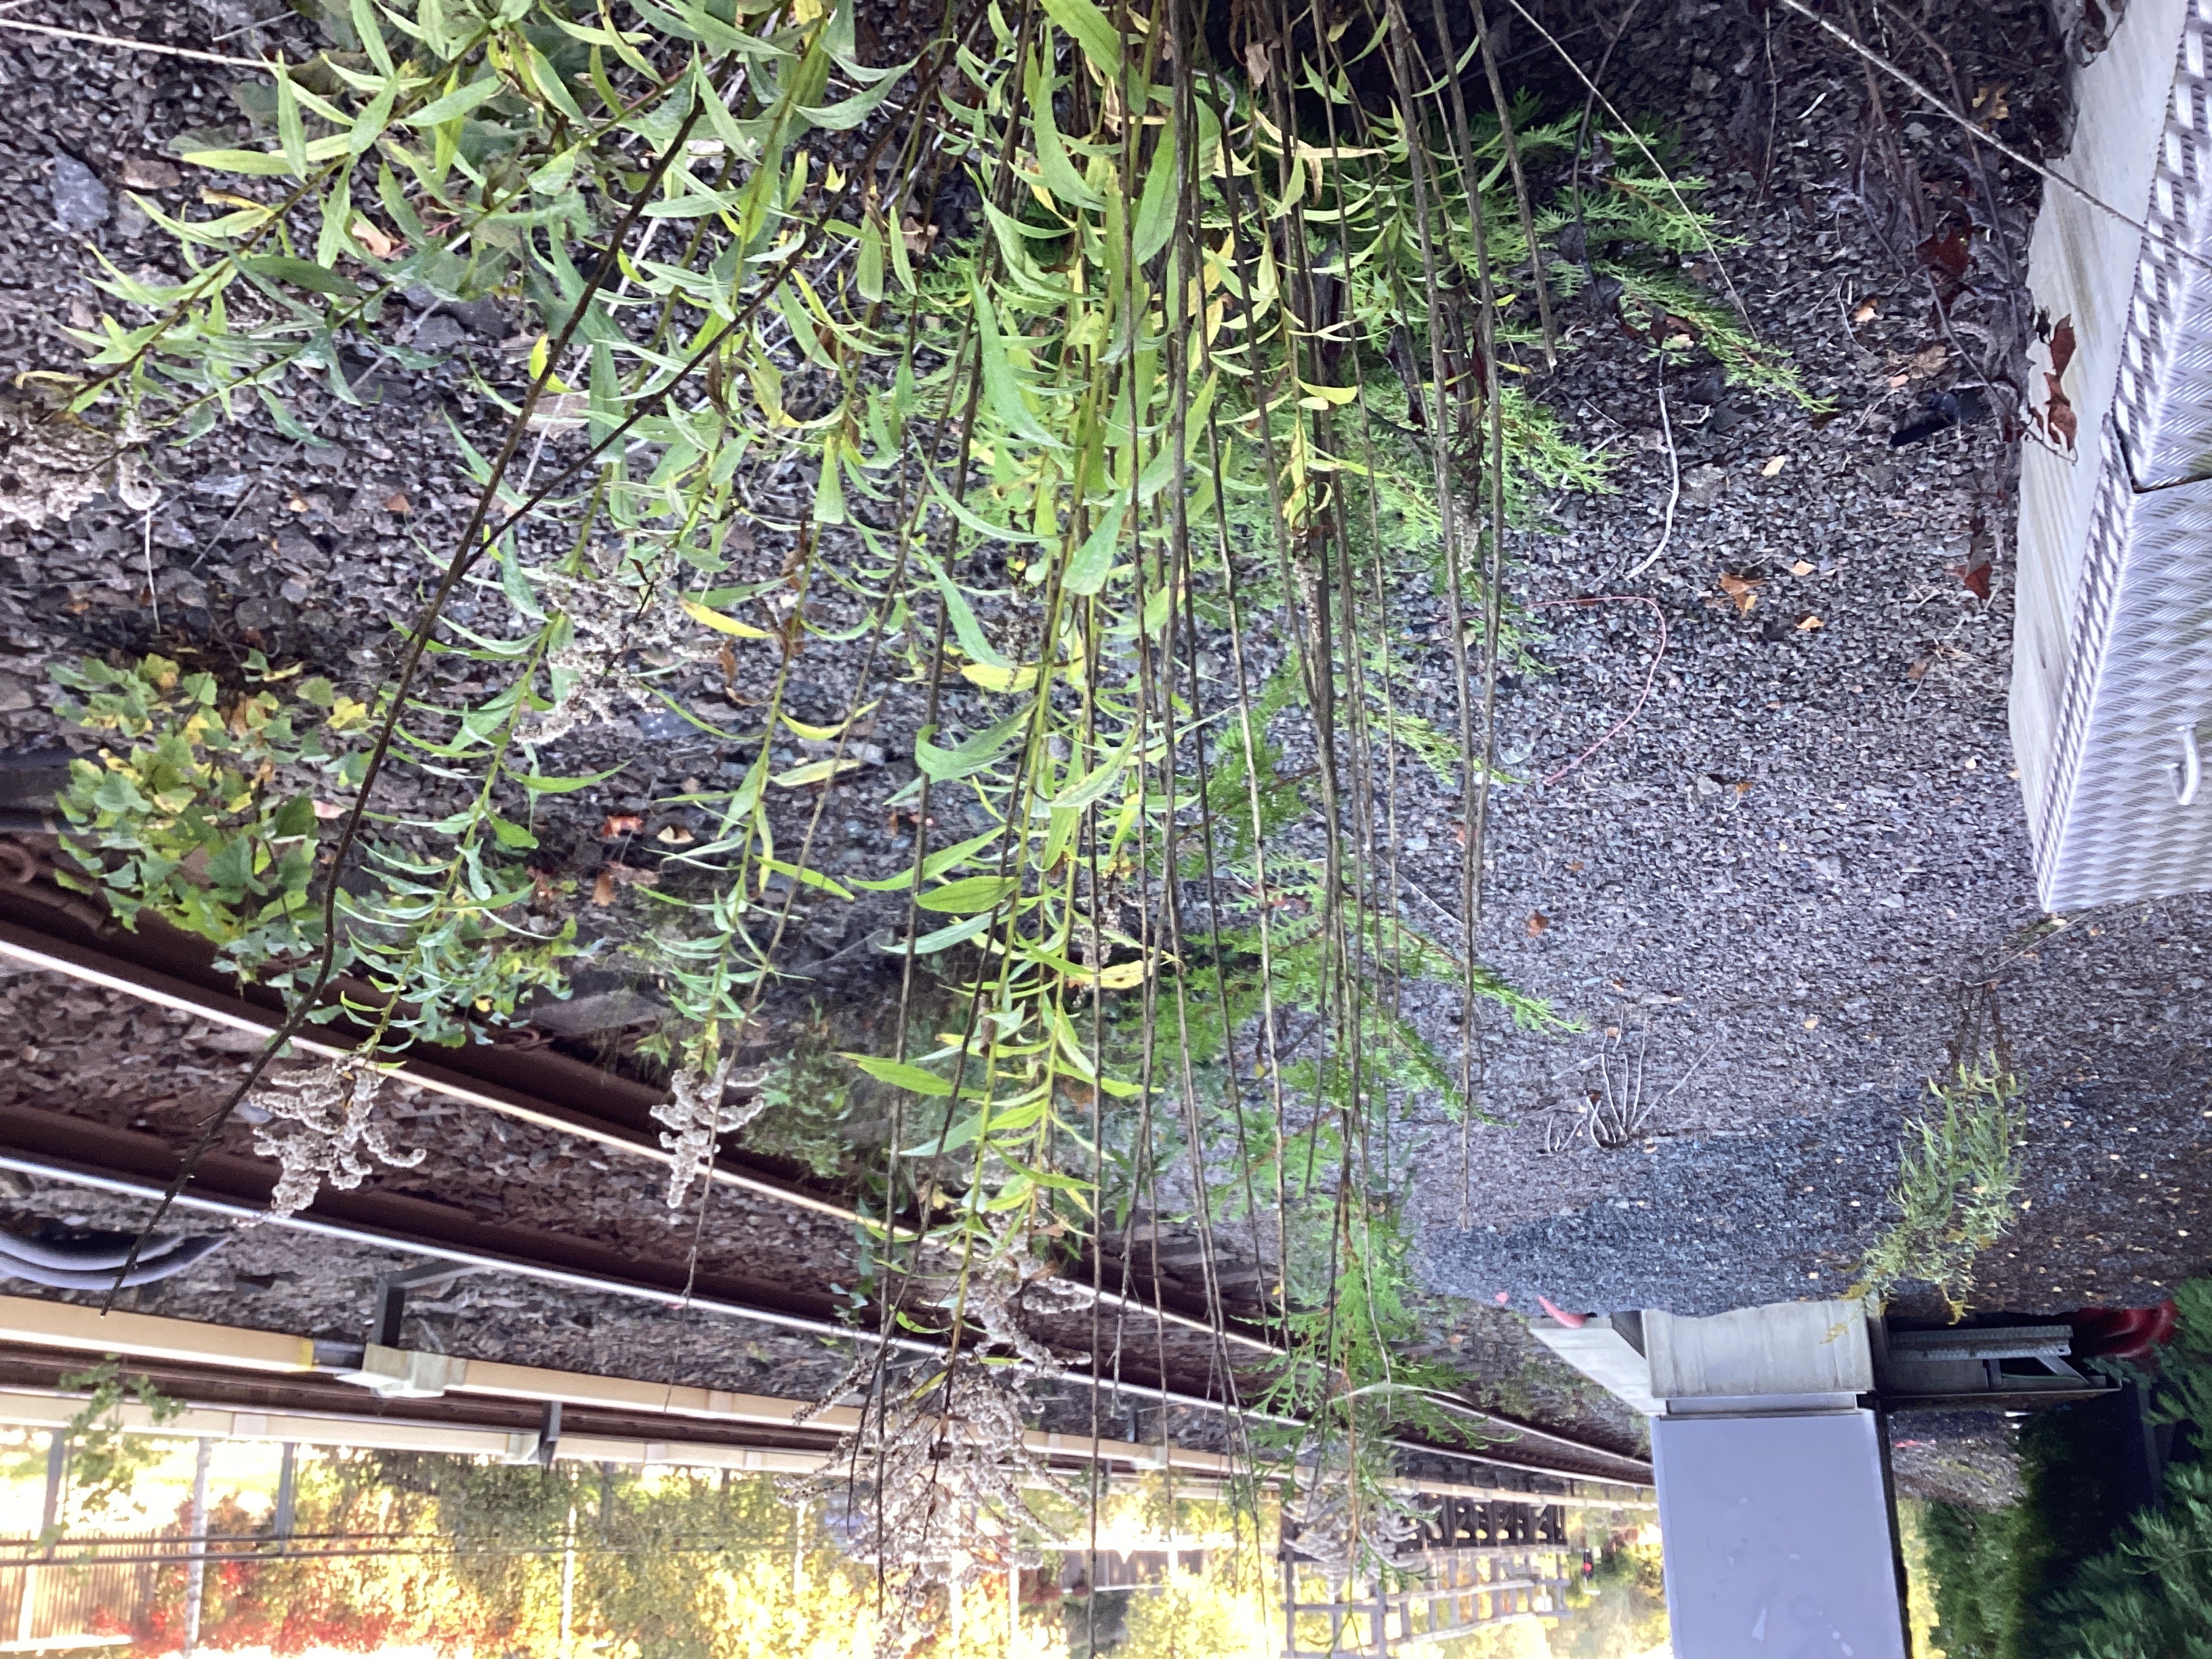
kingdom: Plantae
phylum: Tracheophyta
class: Magnoliopsida
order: Asterales
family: Asteraceae
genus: Solidago
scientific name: Solidago canadensis
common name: kanadagullris
